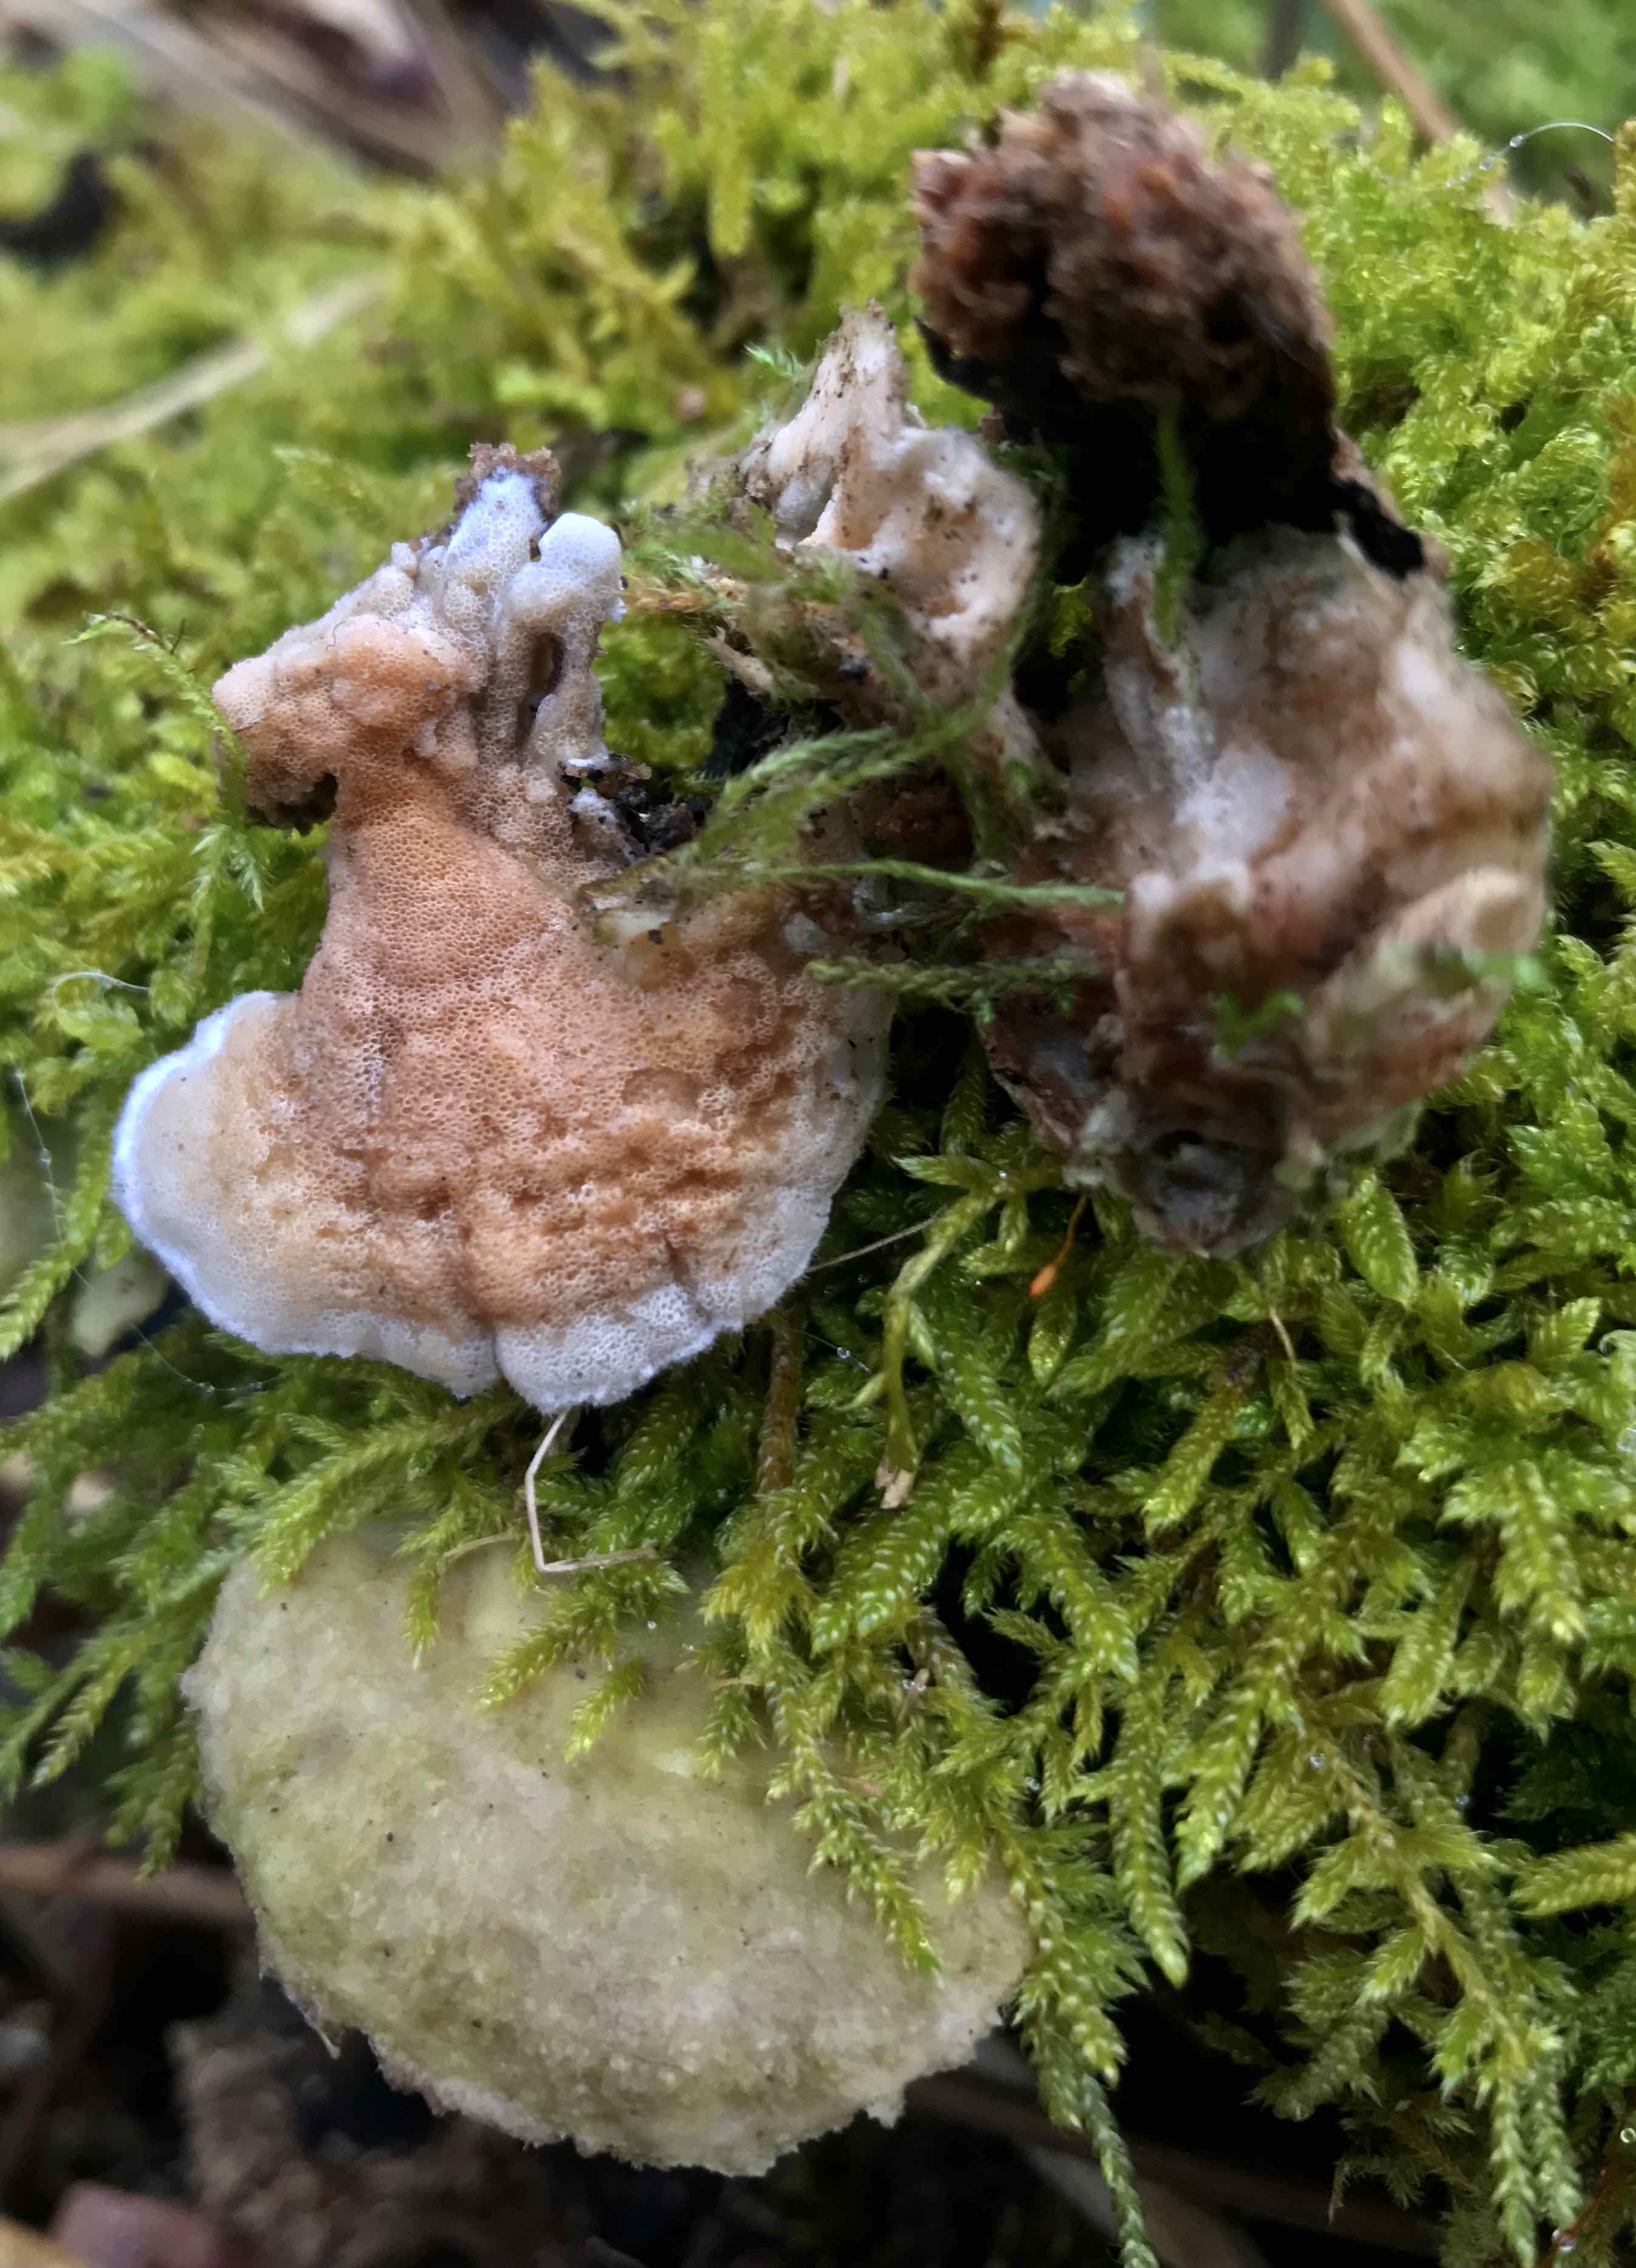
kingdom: Fungi
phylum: Basidiomycota
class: Agaricomycetes
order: Polyporales
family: Irpicaceae
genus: Vitreoporus
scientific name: Vitreoporus dichrous
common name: tofarvet foldporesvamp
